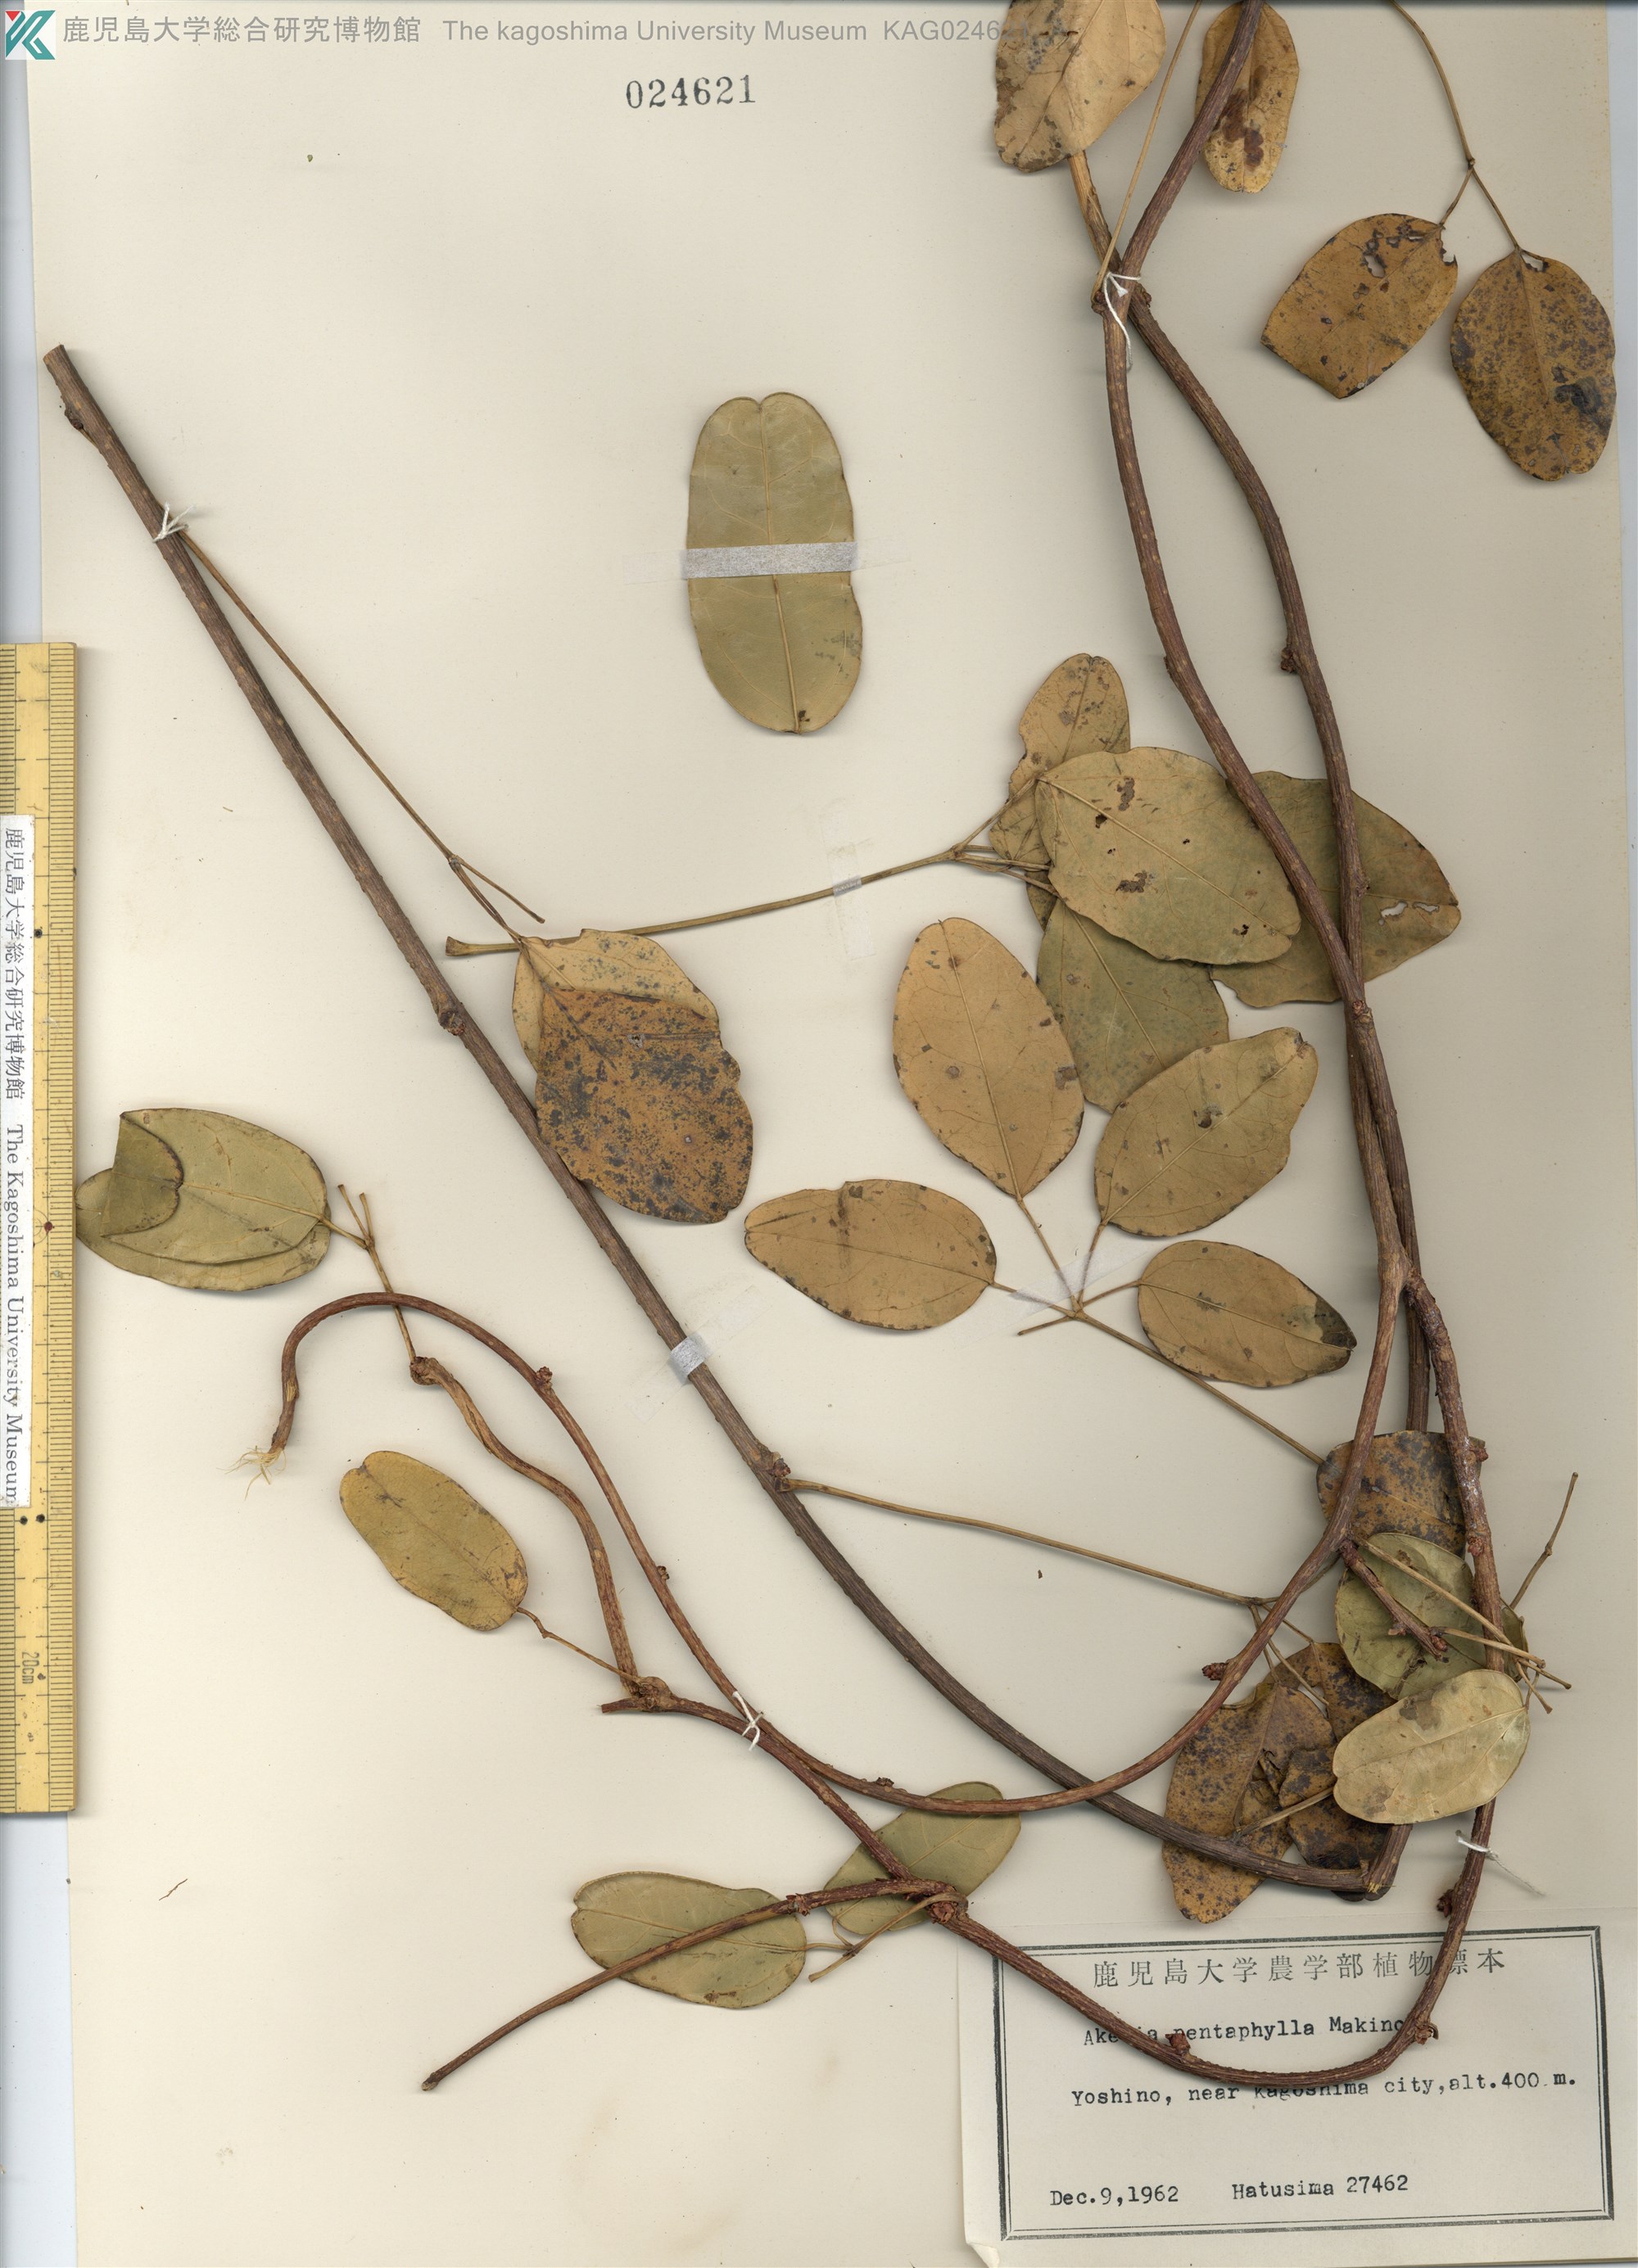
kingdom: Plantae
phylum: Tracheophyta
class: Magnoliopsida
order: Ranunculales
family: Lardizabalaceae
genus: Akebia
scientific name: Akebia pentaphylla
